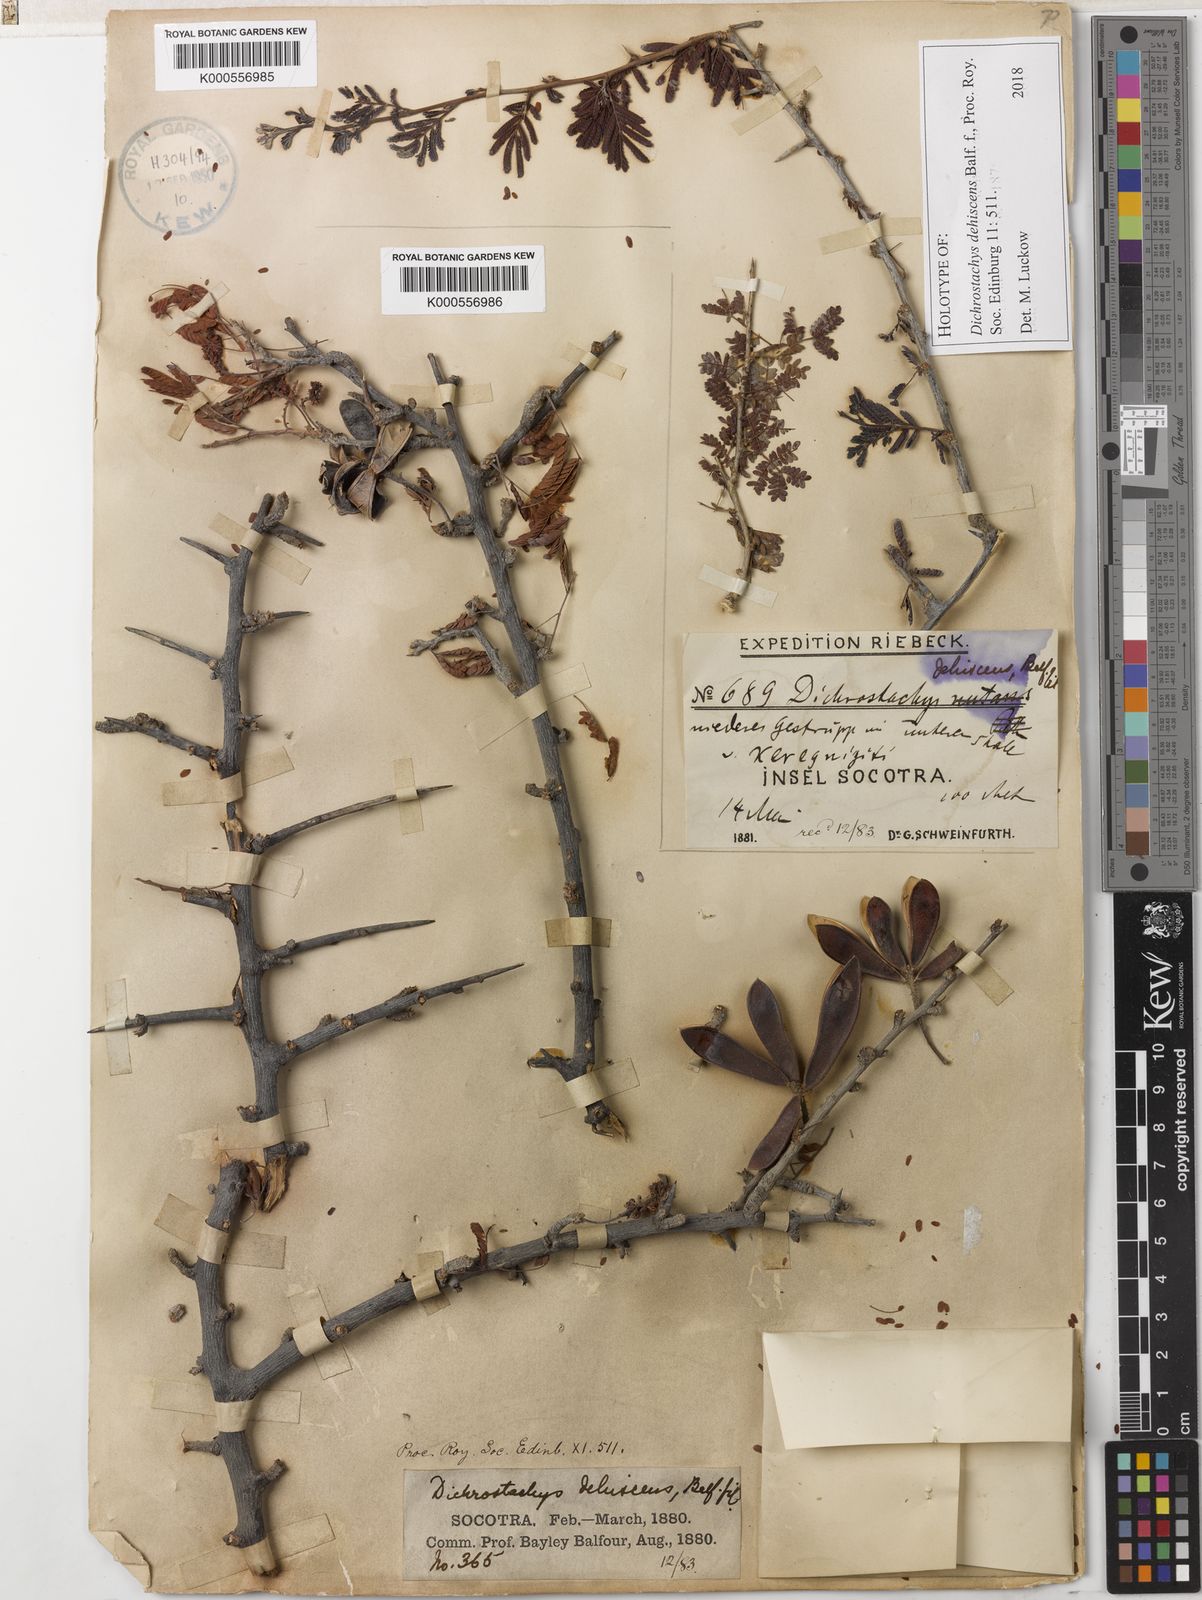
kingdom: Plantae
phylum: Tracheophyta
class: Magnoliopsida
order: Fabales
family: Fabaceae
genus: Dichrostachys
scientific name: Dichrostachys dehiscens
